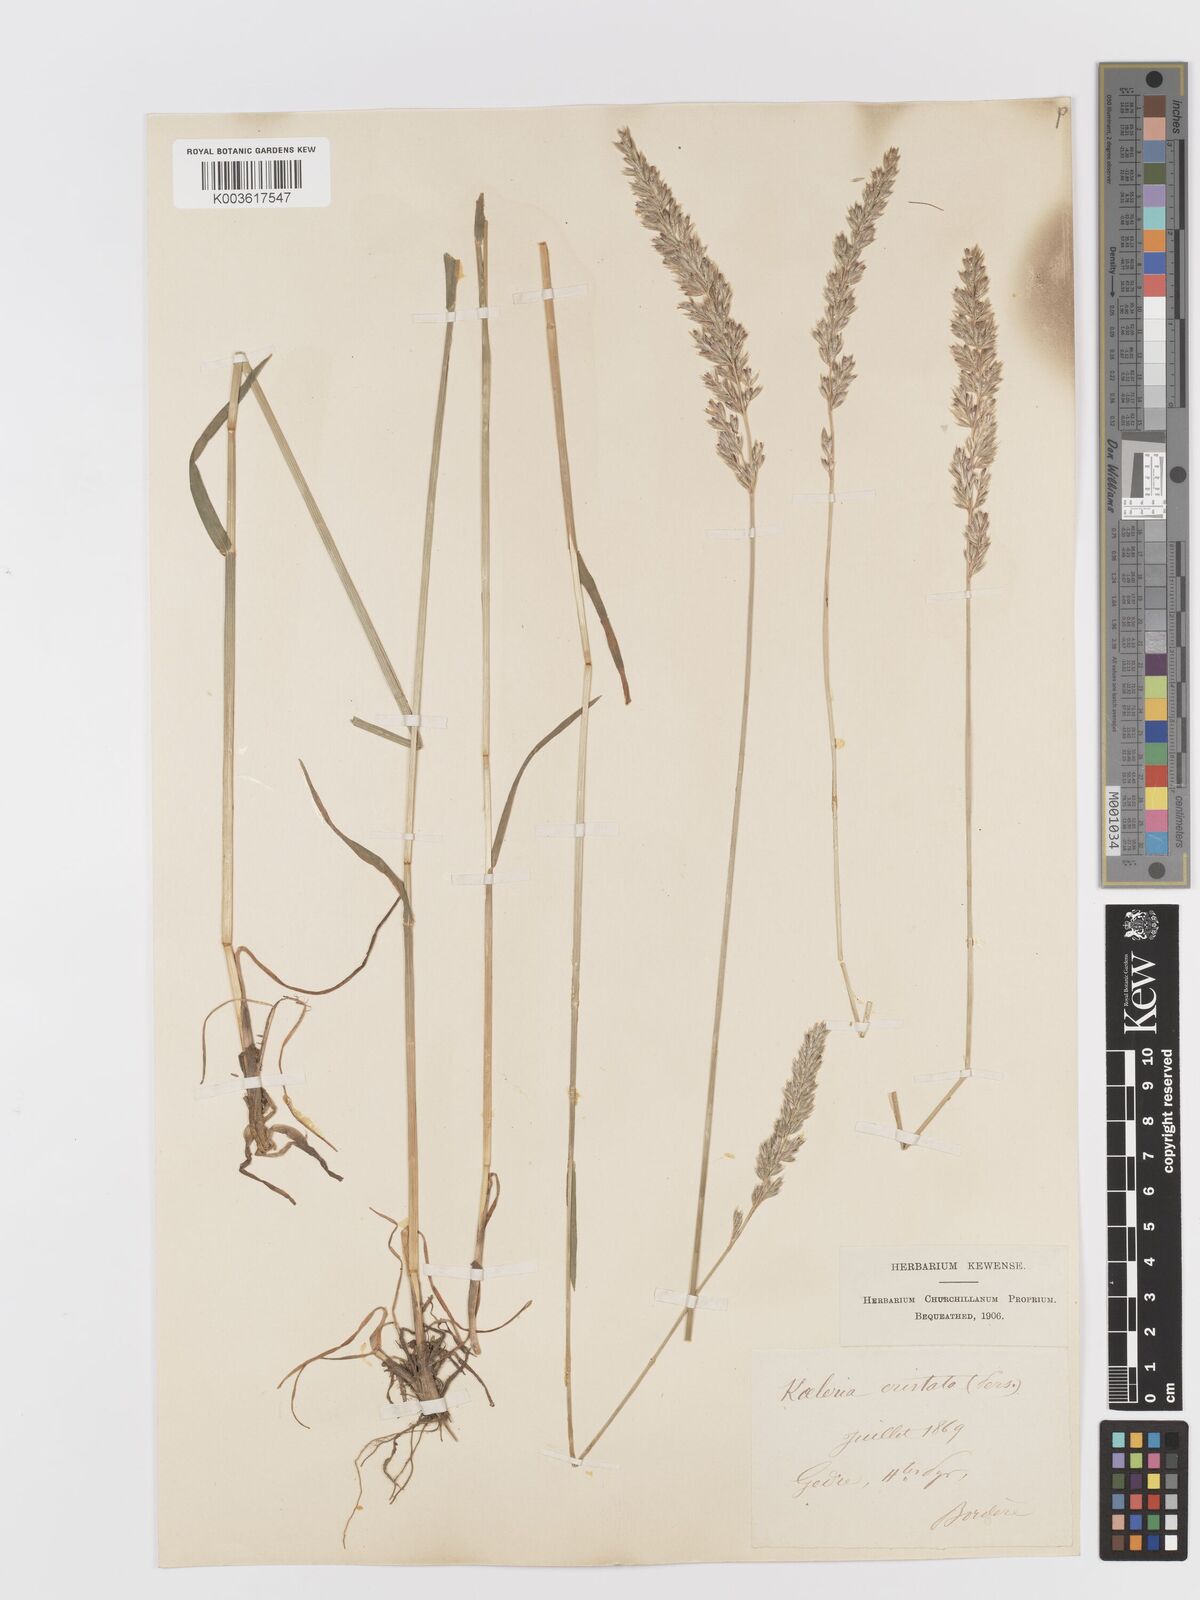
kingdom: Plantae
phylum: Tracheophyta
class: Liliopsida
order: Poales
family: Poaceae
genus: Koeleria
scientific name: Koeleria
